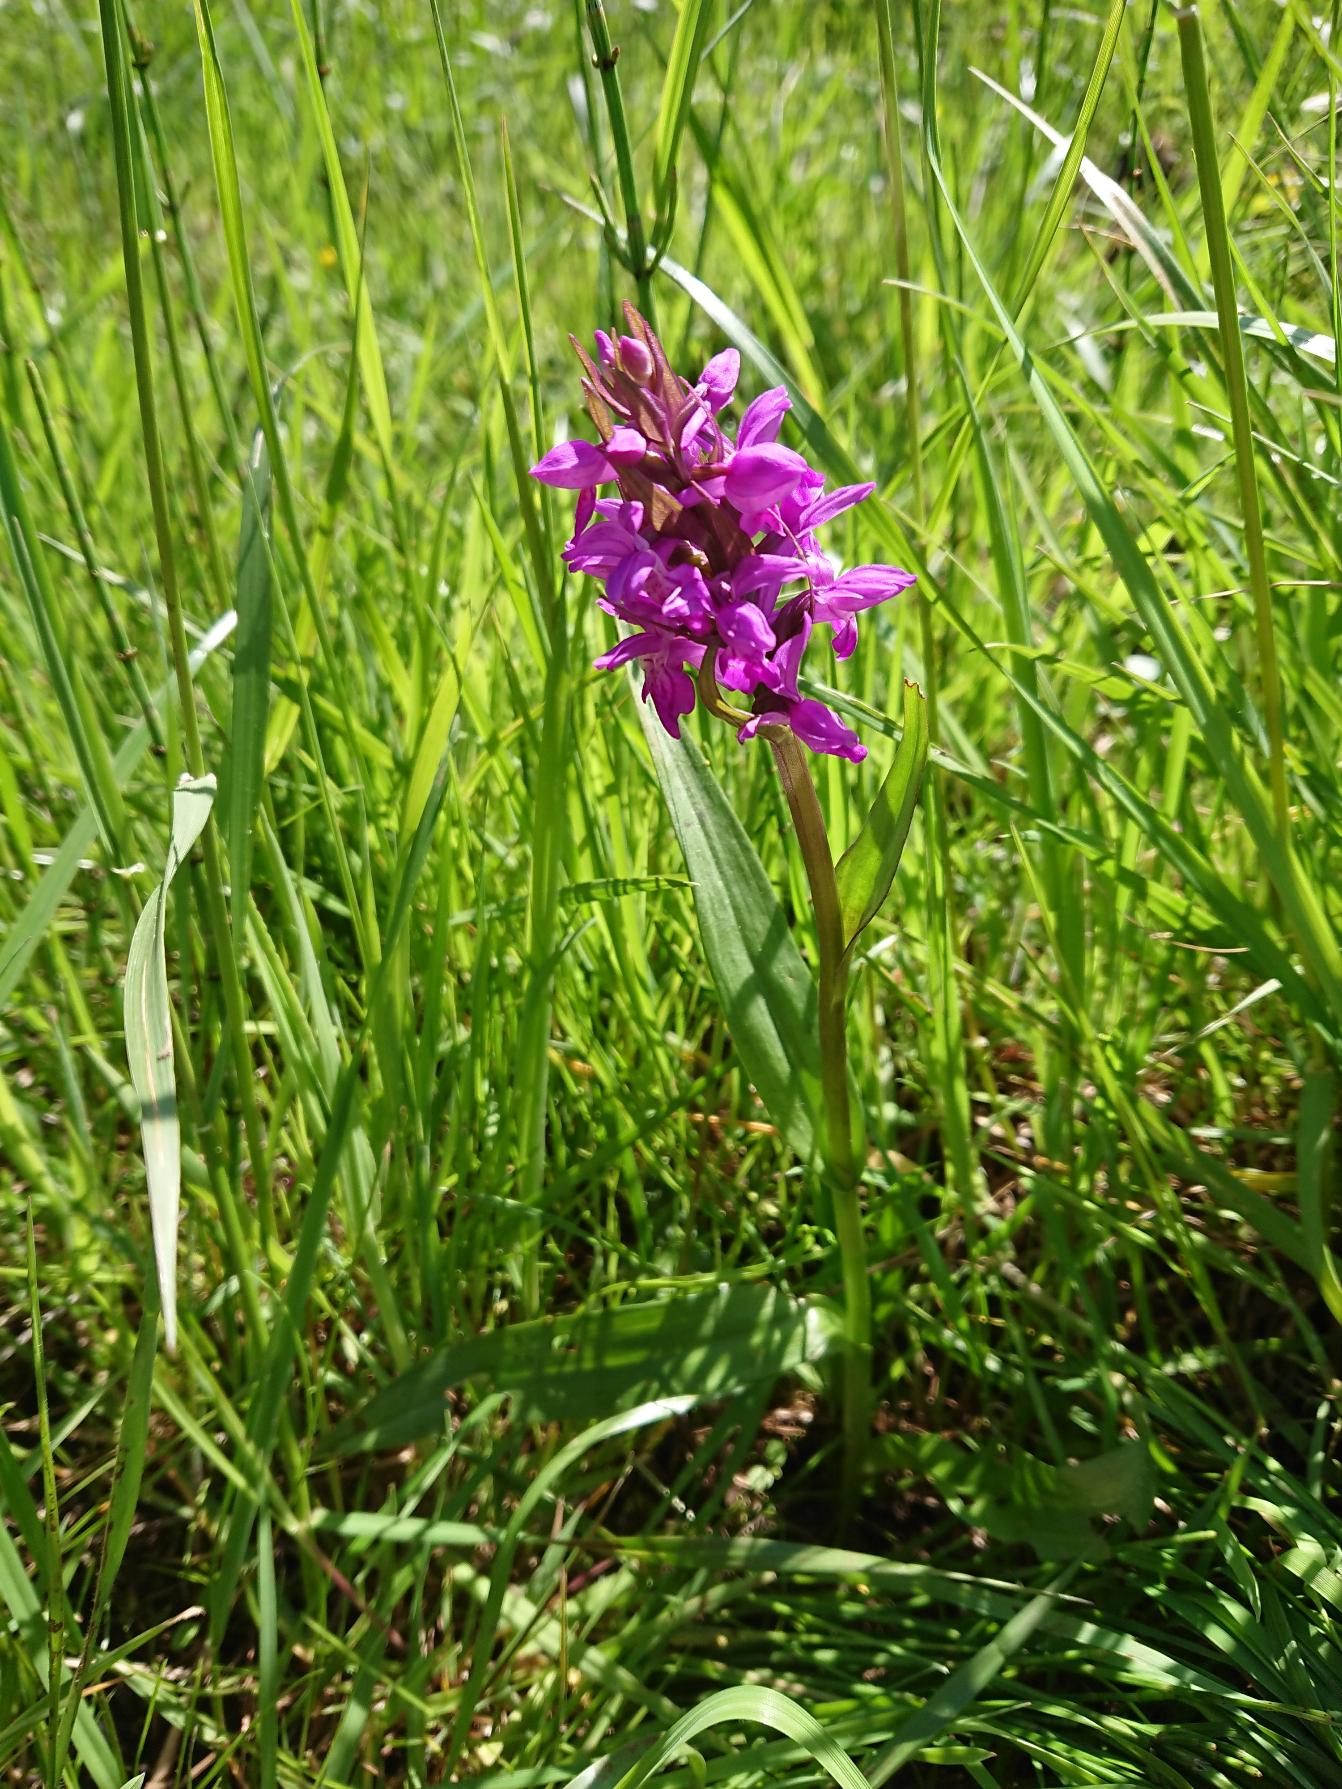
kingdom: Plantae
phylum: Tracheophyta
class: Liliopsida
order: Asparagales
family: Orchidaceae
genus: Dactylorhiza
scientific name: Dactylorhiza majalis
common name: Maj-gøgeurt (underart)
